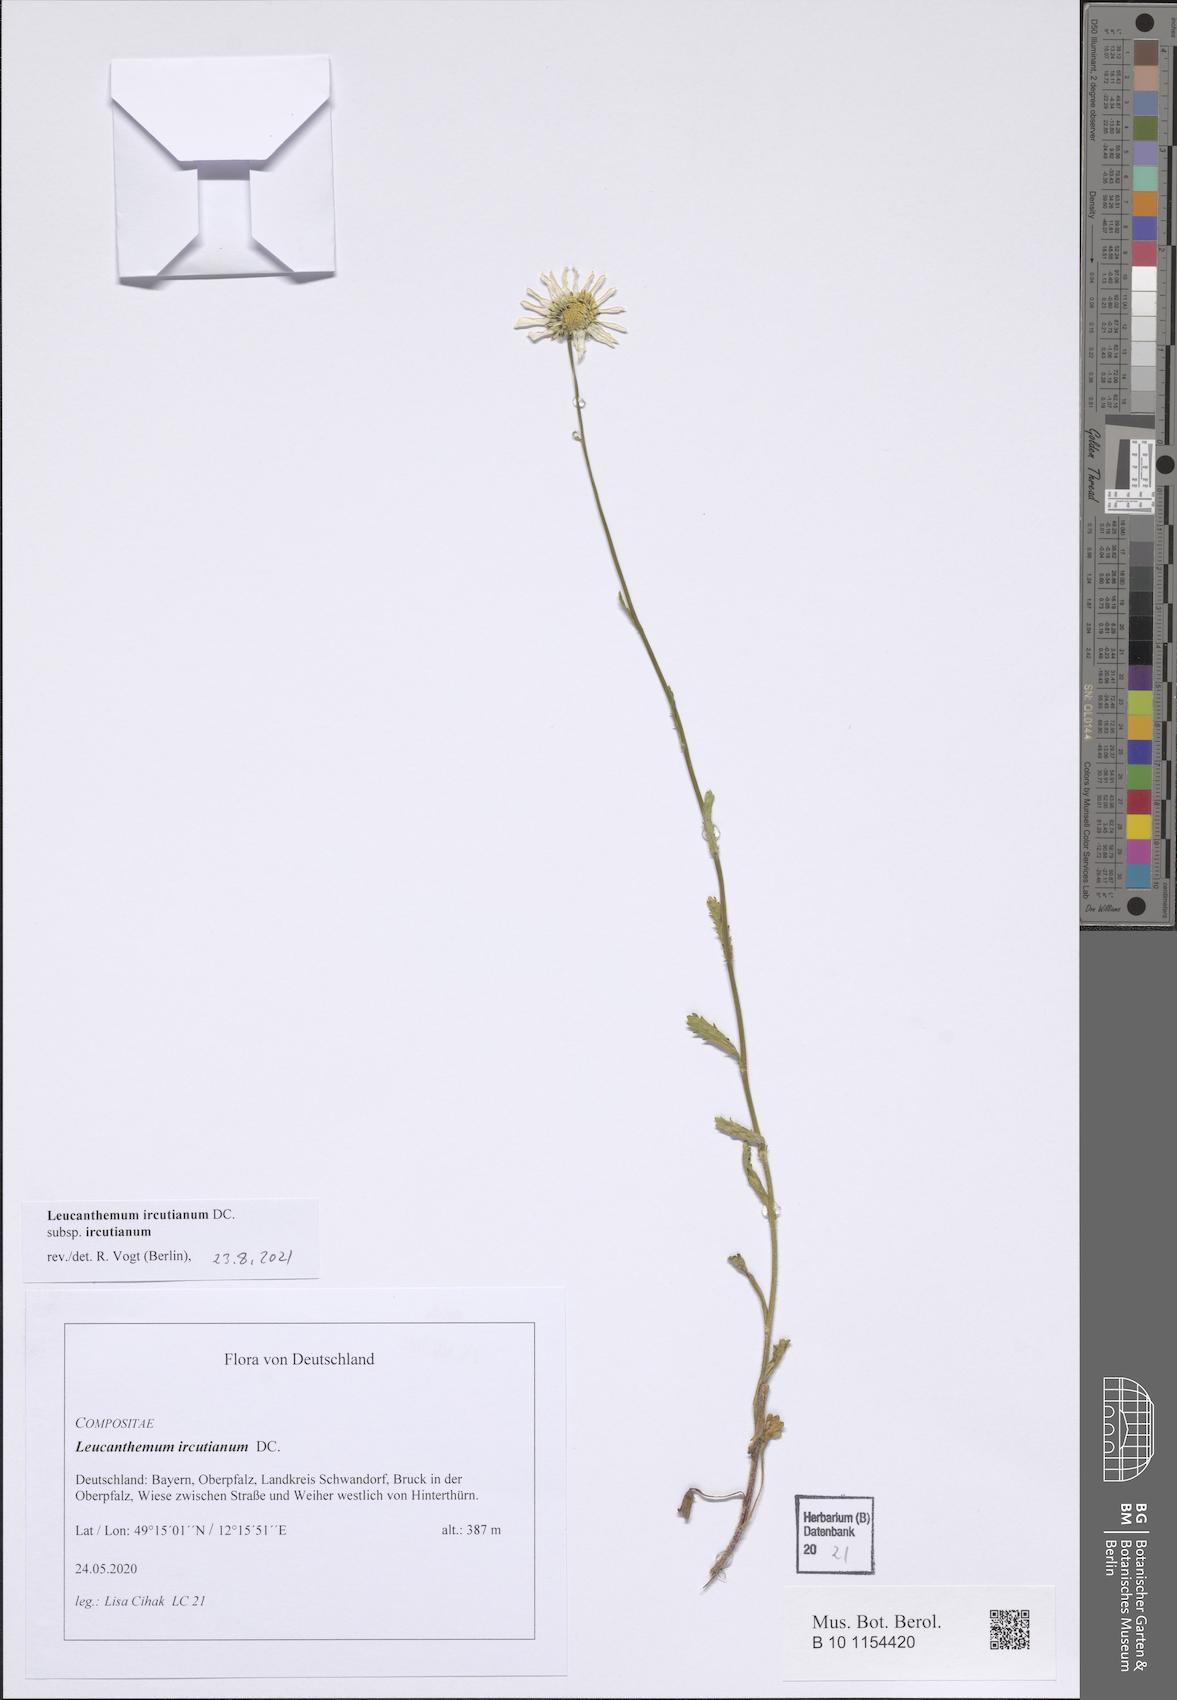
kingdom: Plantae
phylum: Tracheophyta
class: Magnoliopsida
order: Asterales
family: Asteraceae
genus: Leucanthemum
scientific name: Leucanthemum ircutianum
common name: Daisy
